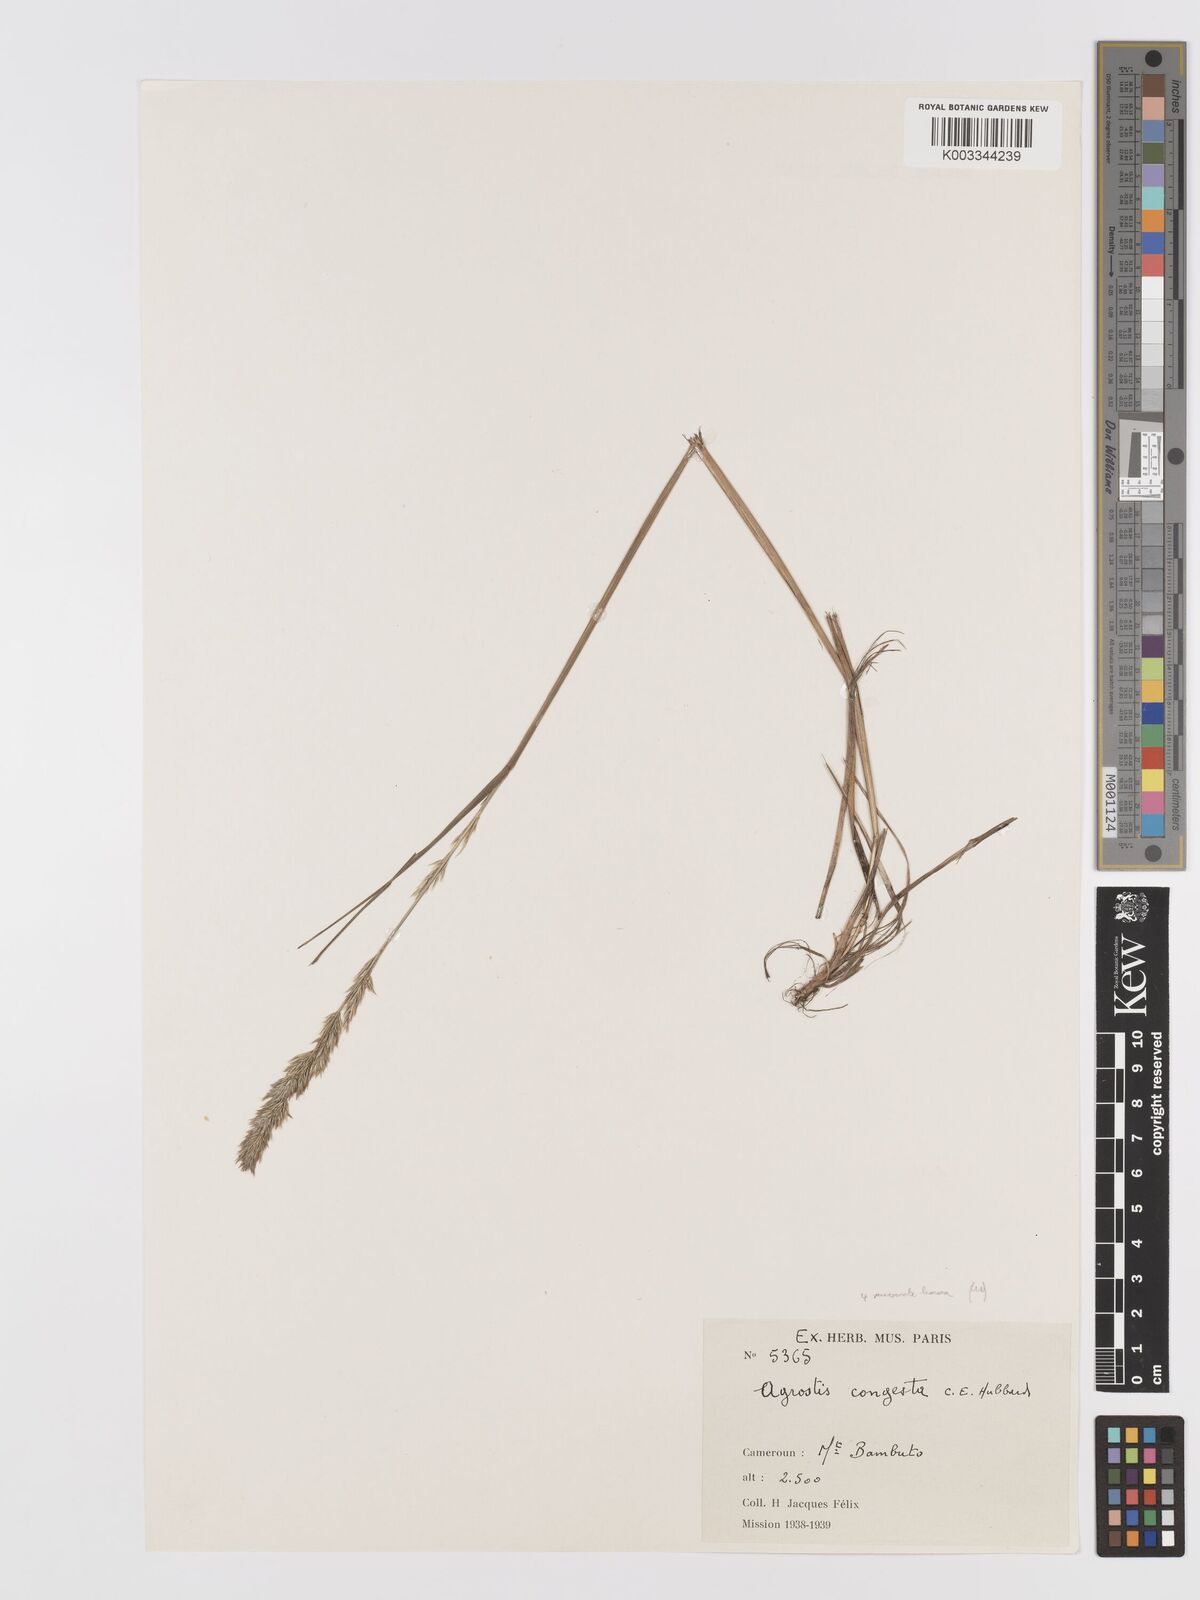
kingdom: Plantae
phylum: Tracheophyta
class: Liliopsida
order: Poales
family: Poaceae
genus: Agrostis
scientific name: Agrostis quinqueseta
